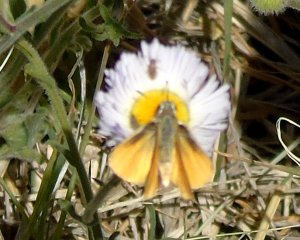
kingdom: Animalia
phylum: Arthropoda
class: Insecta
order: Lepidoptera
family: Hesperiidae
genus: Copaeodes
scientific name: Copaeodes aurantiaca
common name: Orange Skipperling
